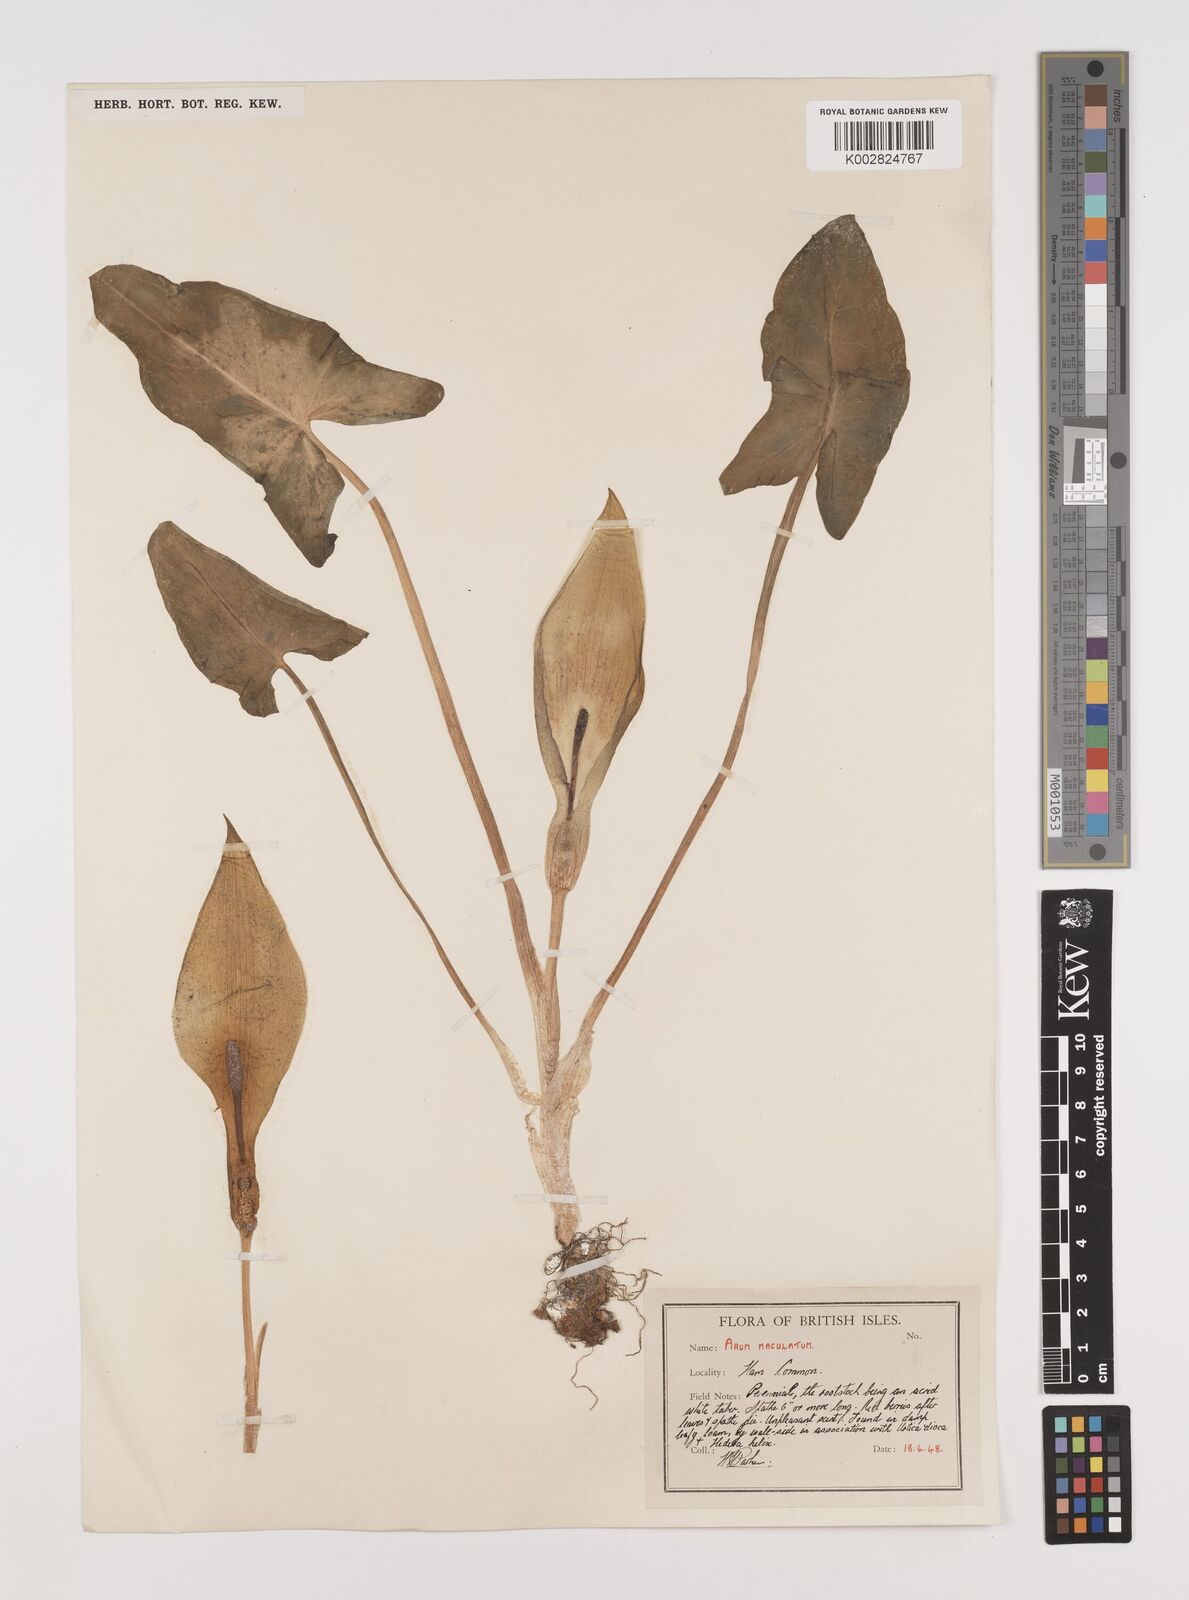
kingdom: Plantae
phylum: Tracheophyta
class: Liliopsida
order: Alismatales
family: Araceae
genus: Arum
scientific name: Arum maculatum
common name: Lords-and-ladies
